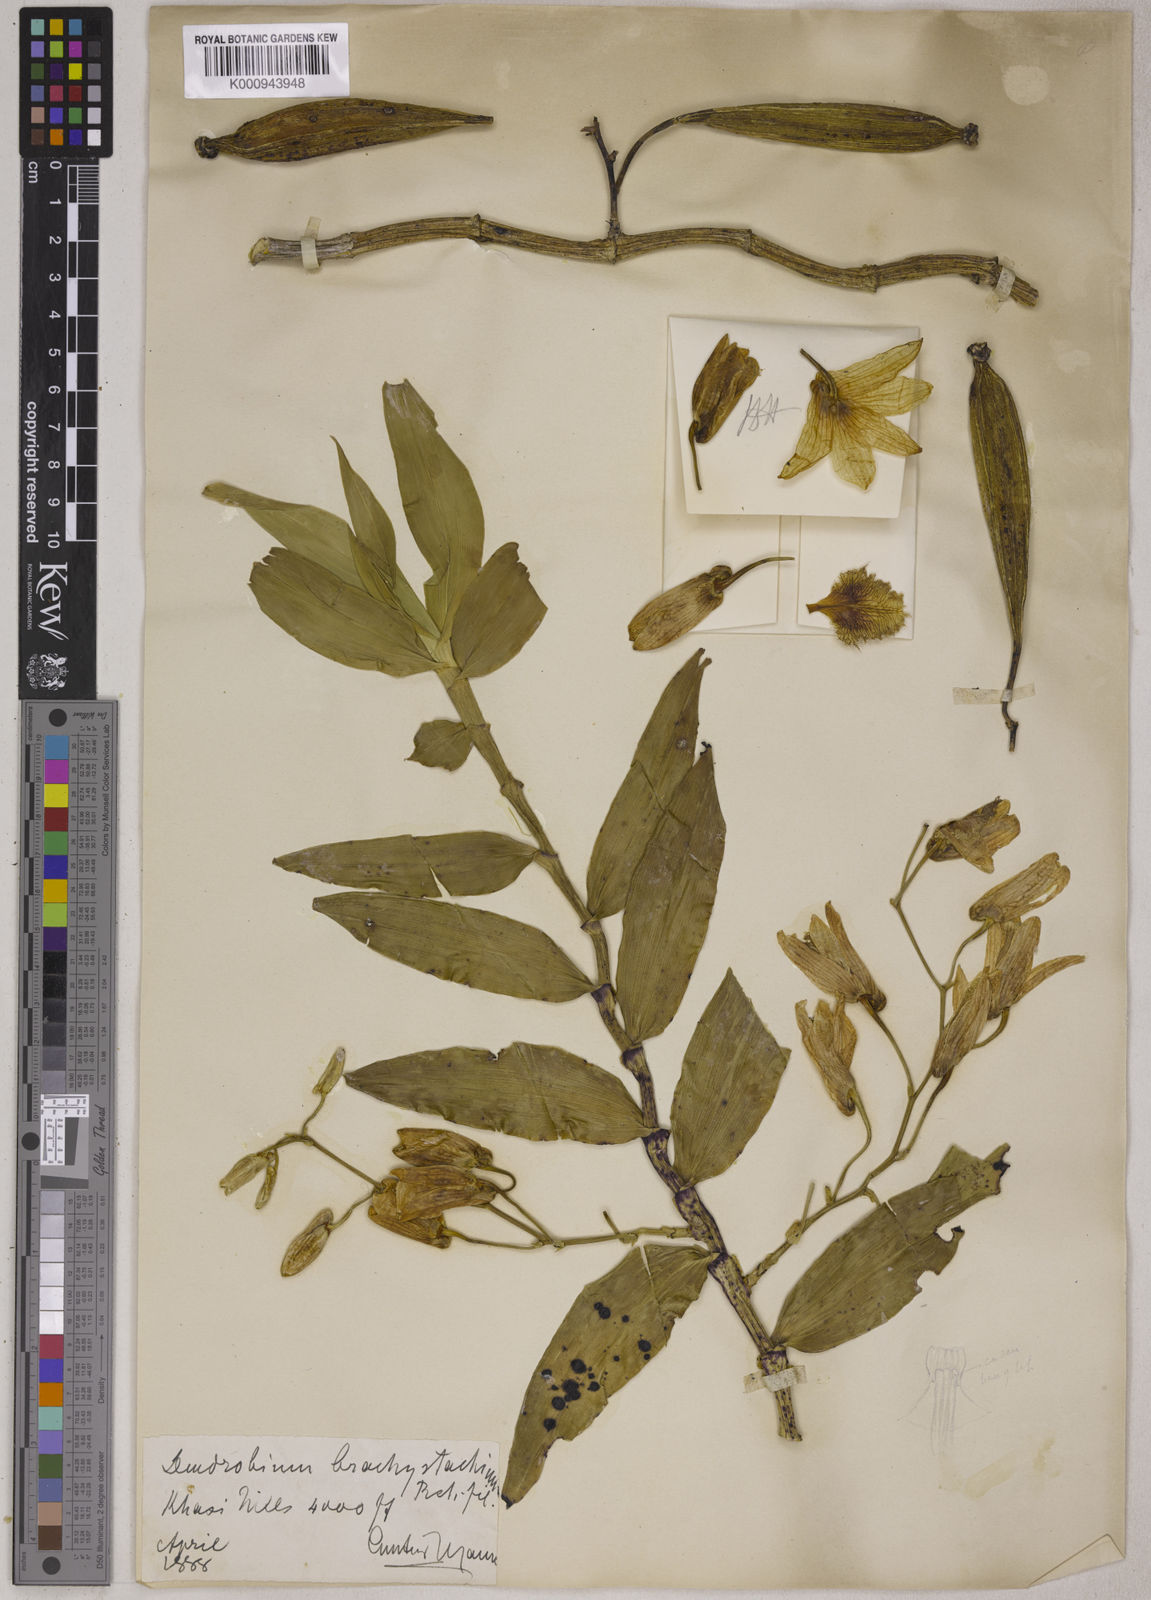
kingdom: Plantae
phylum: Tracheophyta
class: Liliopsida
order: Asparagales
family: Orchidaceae
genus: Dendrobium
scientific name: Dendrobium hookerianum
